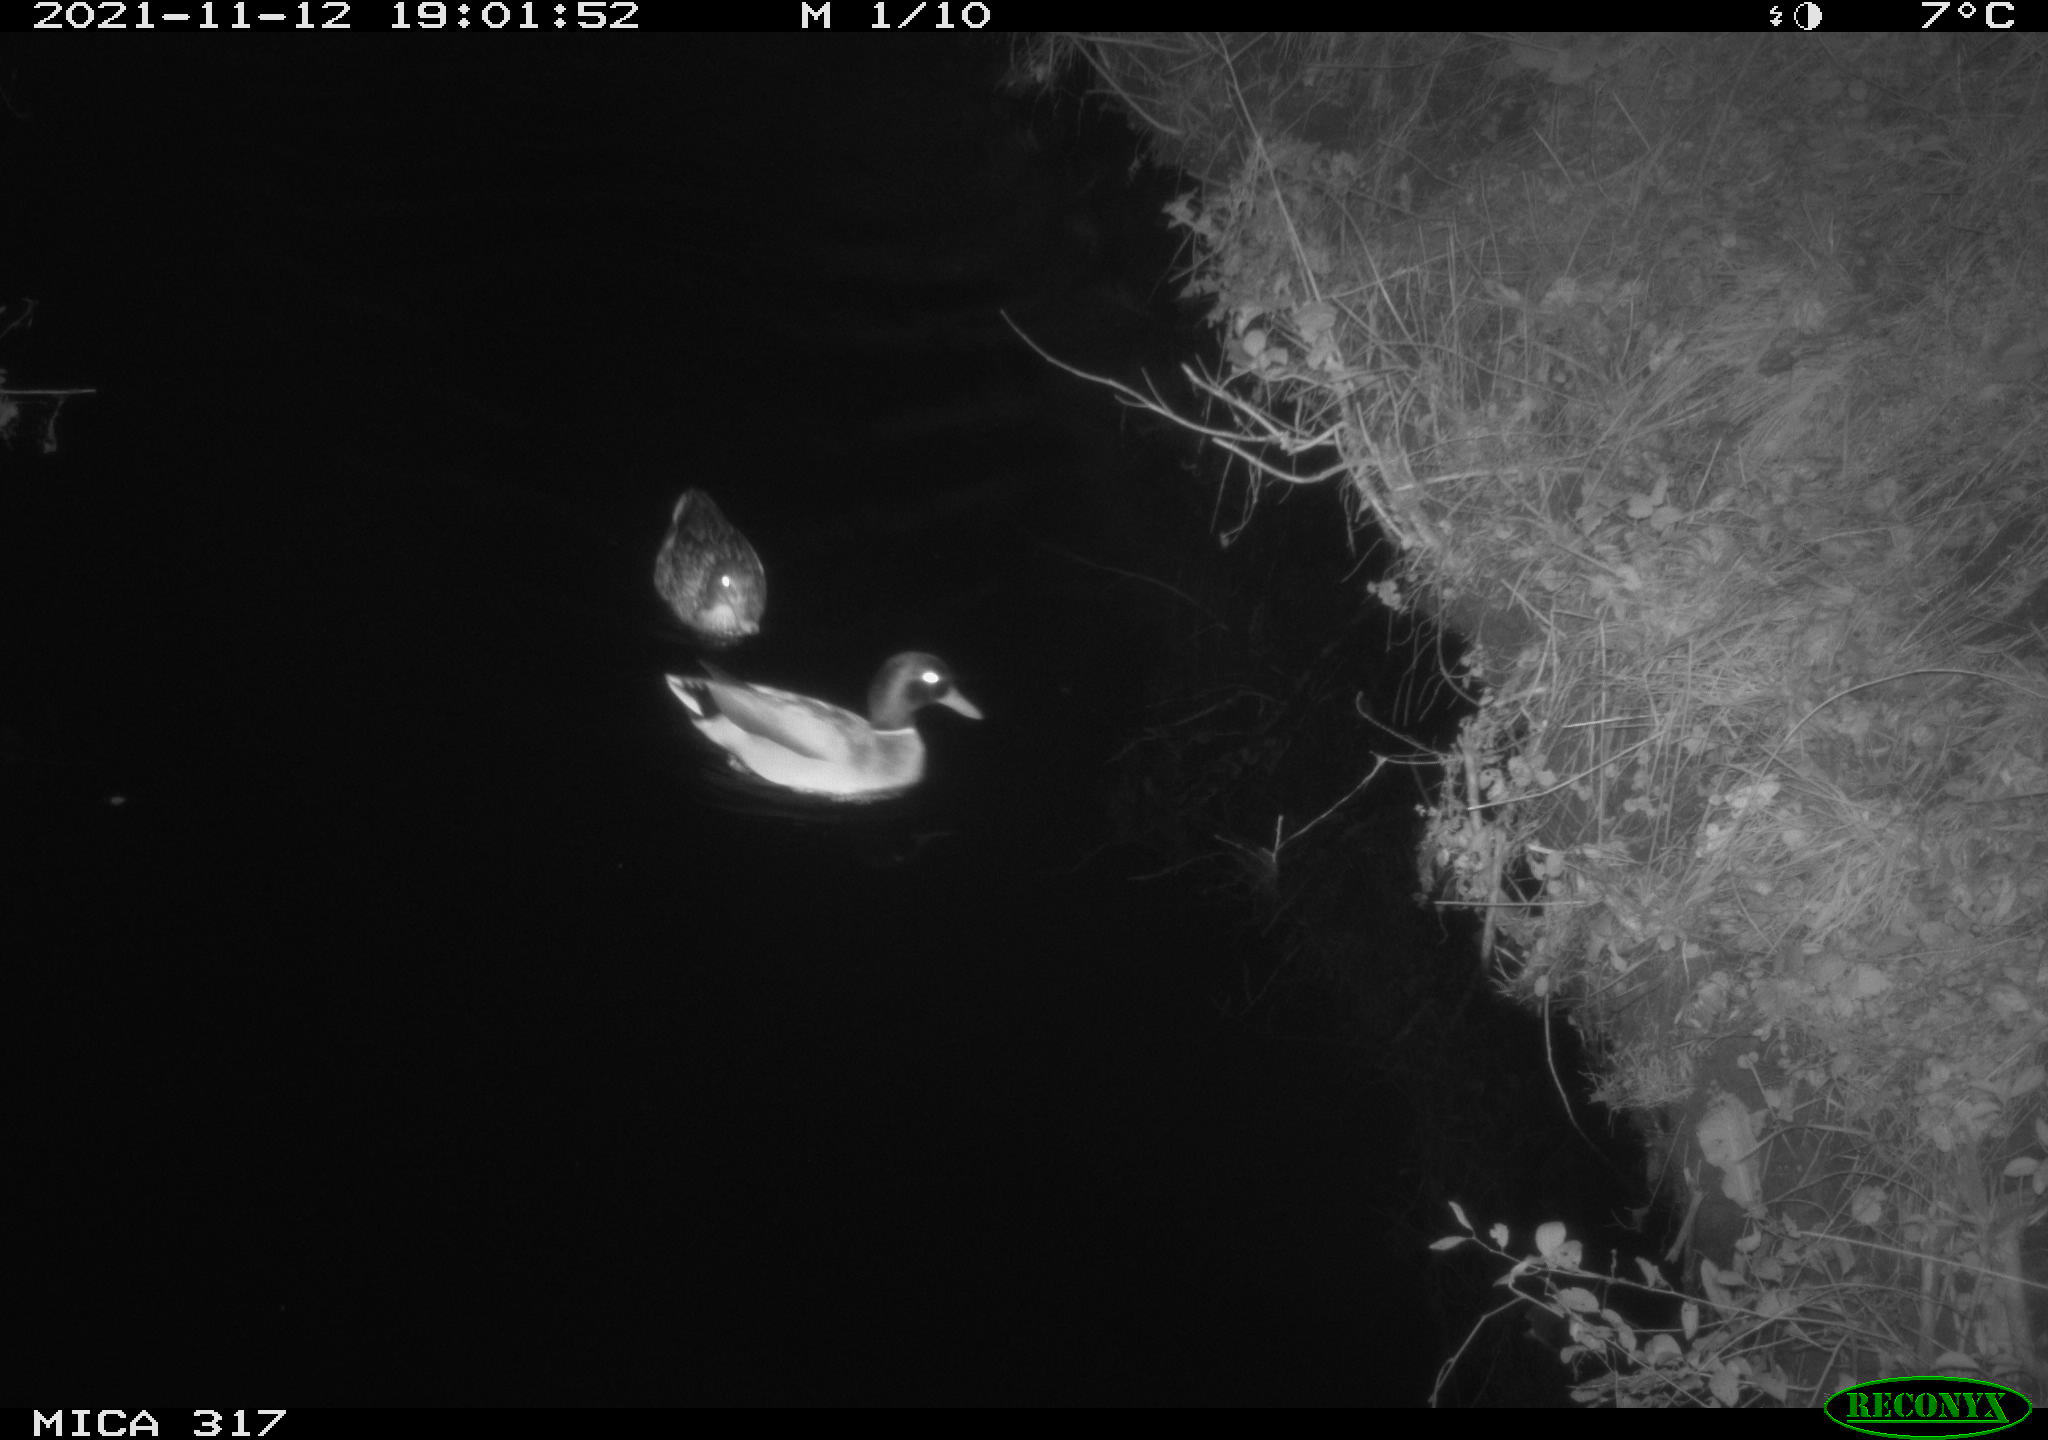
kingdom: Animalia
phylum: Chordata
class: Aves
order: Anseriformes
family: Anatidae
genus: Anas
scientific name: Anas platyrhynchos
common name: Mallard
